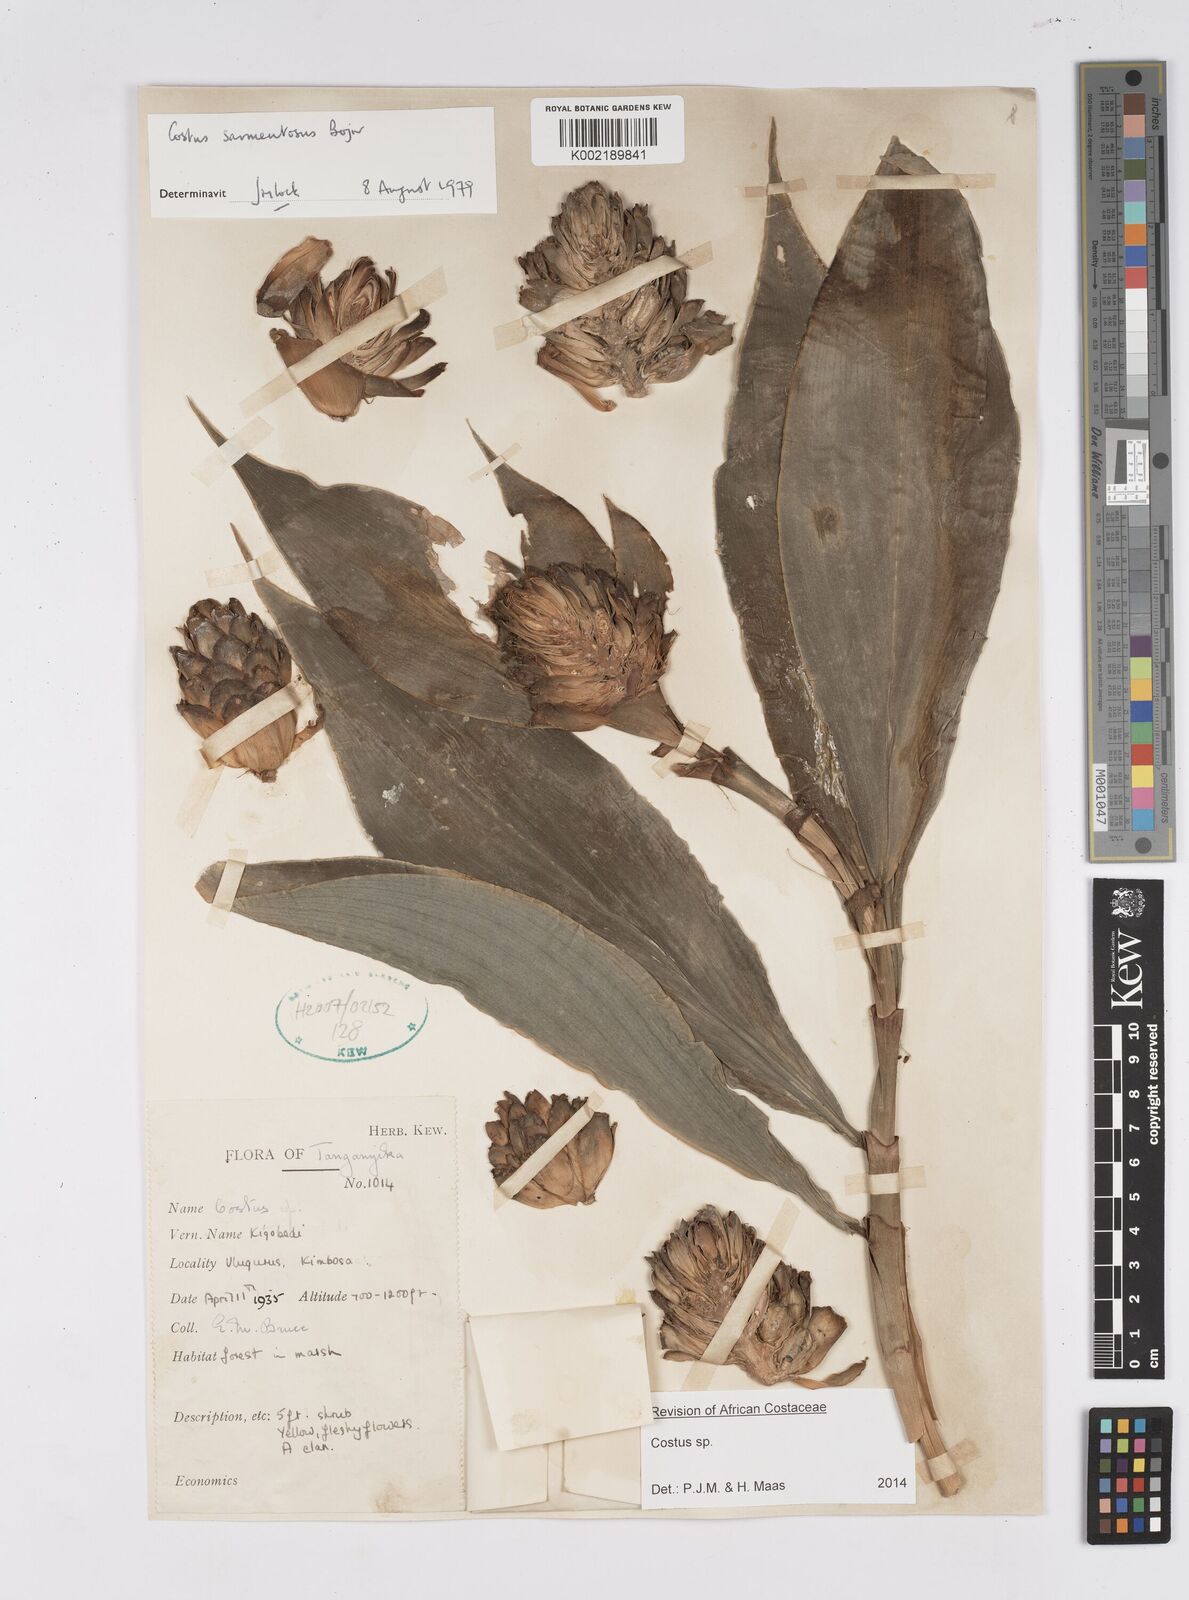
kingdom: Plantae
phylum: Tracheophyta
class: Liliopsida
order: Zingiberales
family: Costaceae
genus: Costus
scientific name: Costus
